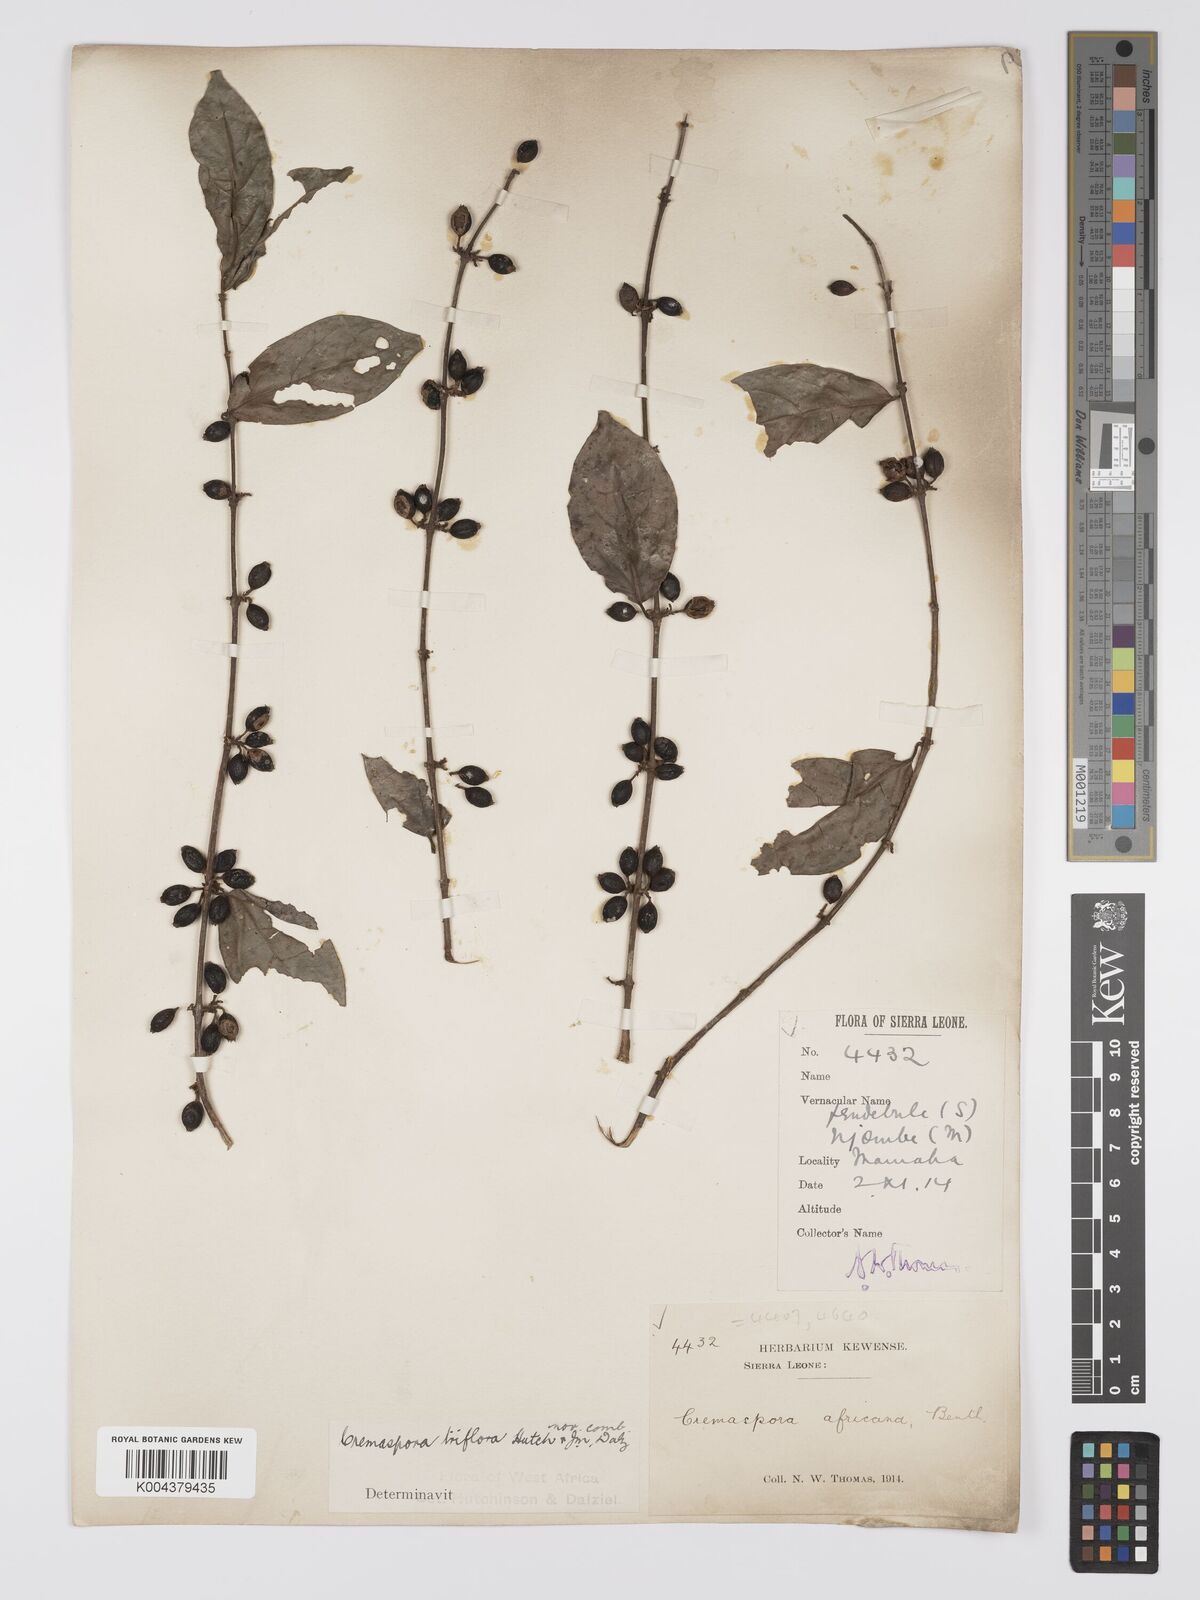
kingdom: Plantae
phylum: Tracheophyta
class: Magnoliopsida
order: Gentianales
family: Rubiaceae
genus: Cremaspora
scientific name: Cremaspora triflora
